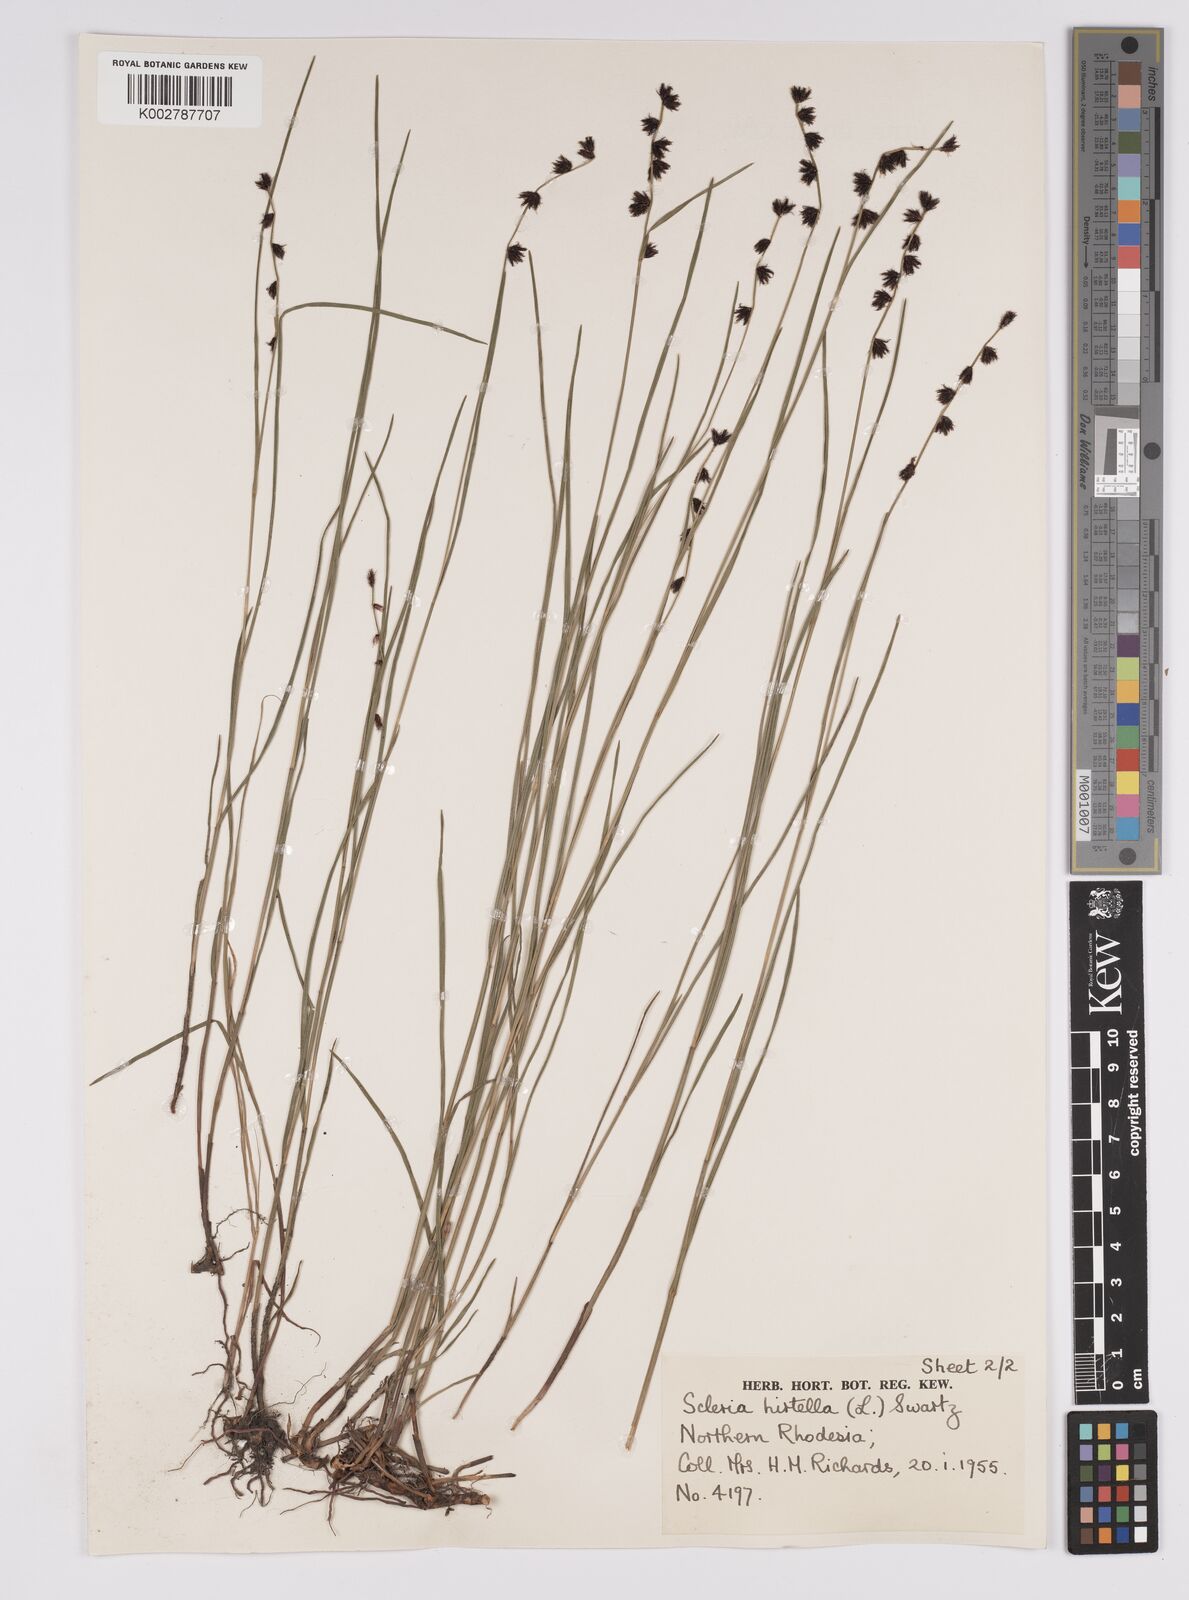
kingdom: Plantae
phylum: Tracheophyta
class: Liliopsida
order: Poales
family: Cyperaceae
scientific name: Cyperaceae
